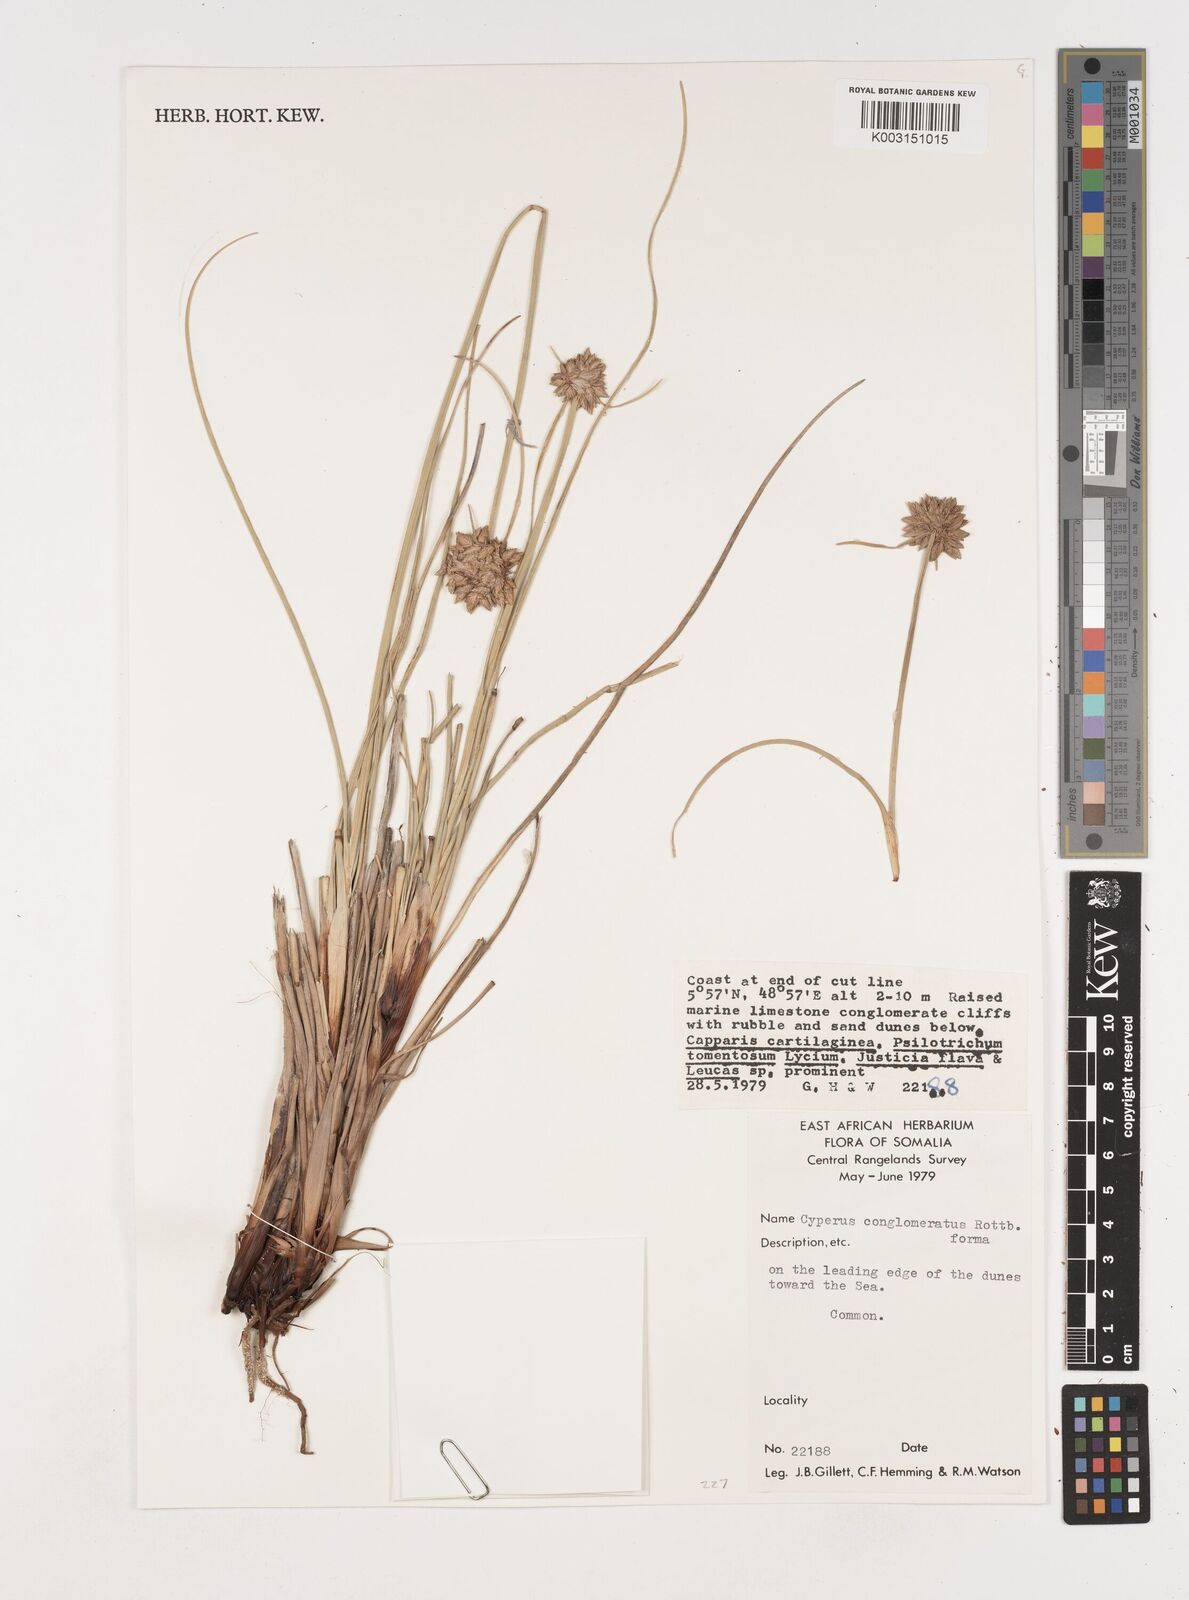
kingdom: Plantae
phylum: Tracheophyta
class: Liliopsida
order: Poales
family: Cyperaceae
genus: Cyperus
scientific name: Cyperus conglomeratus
